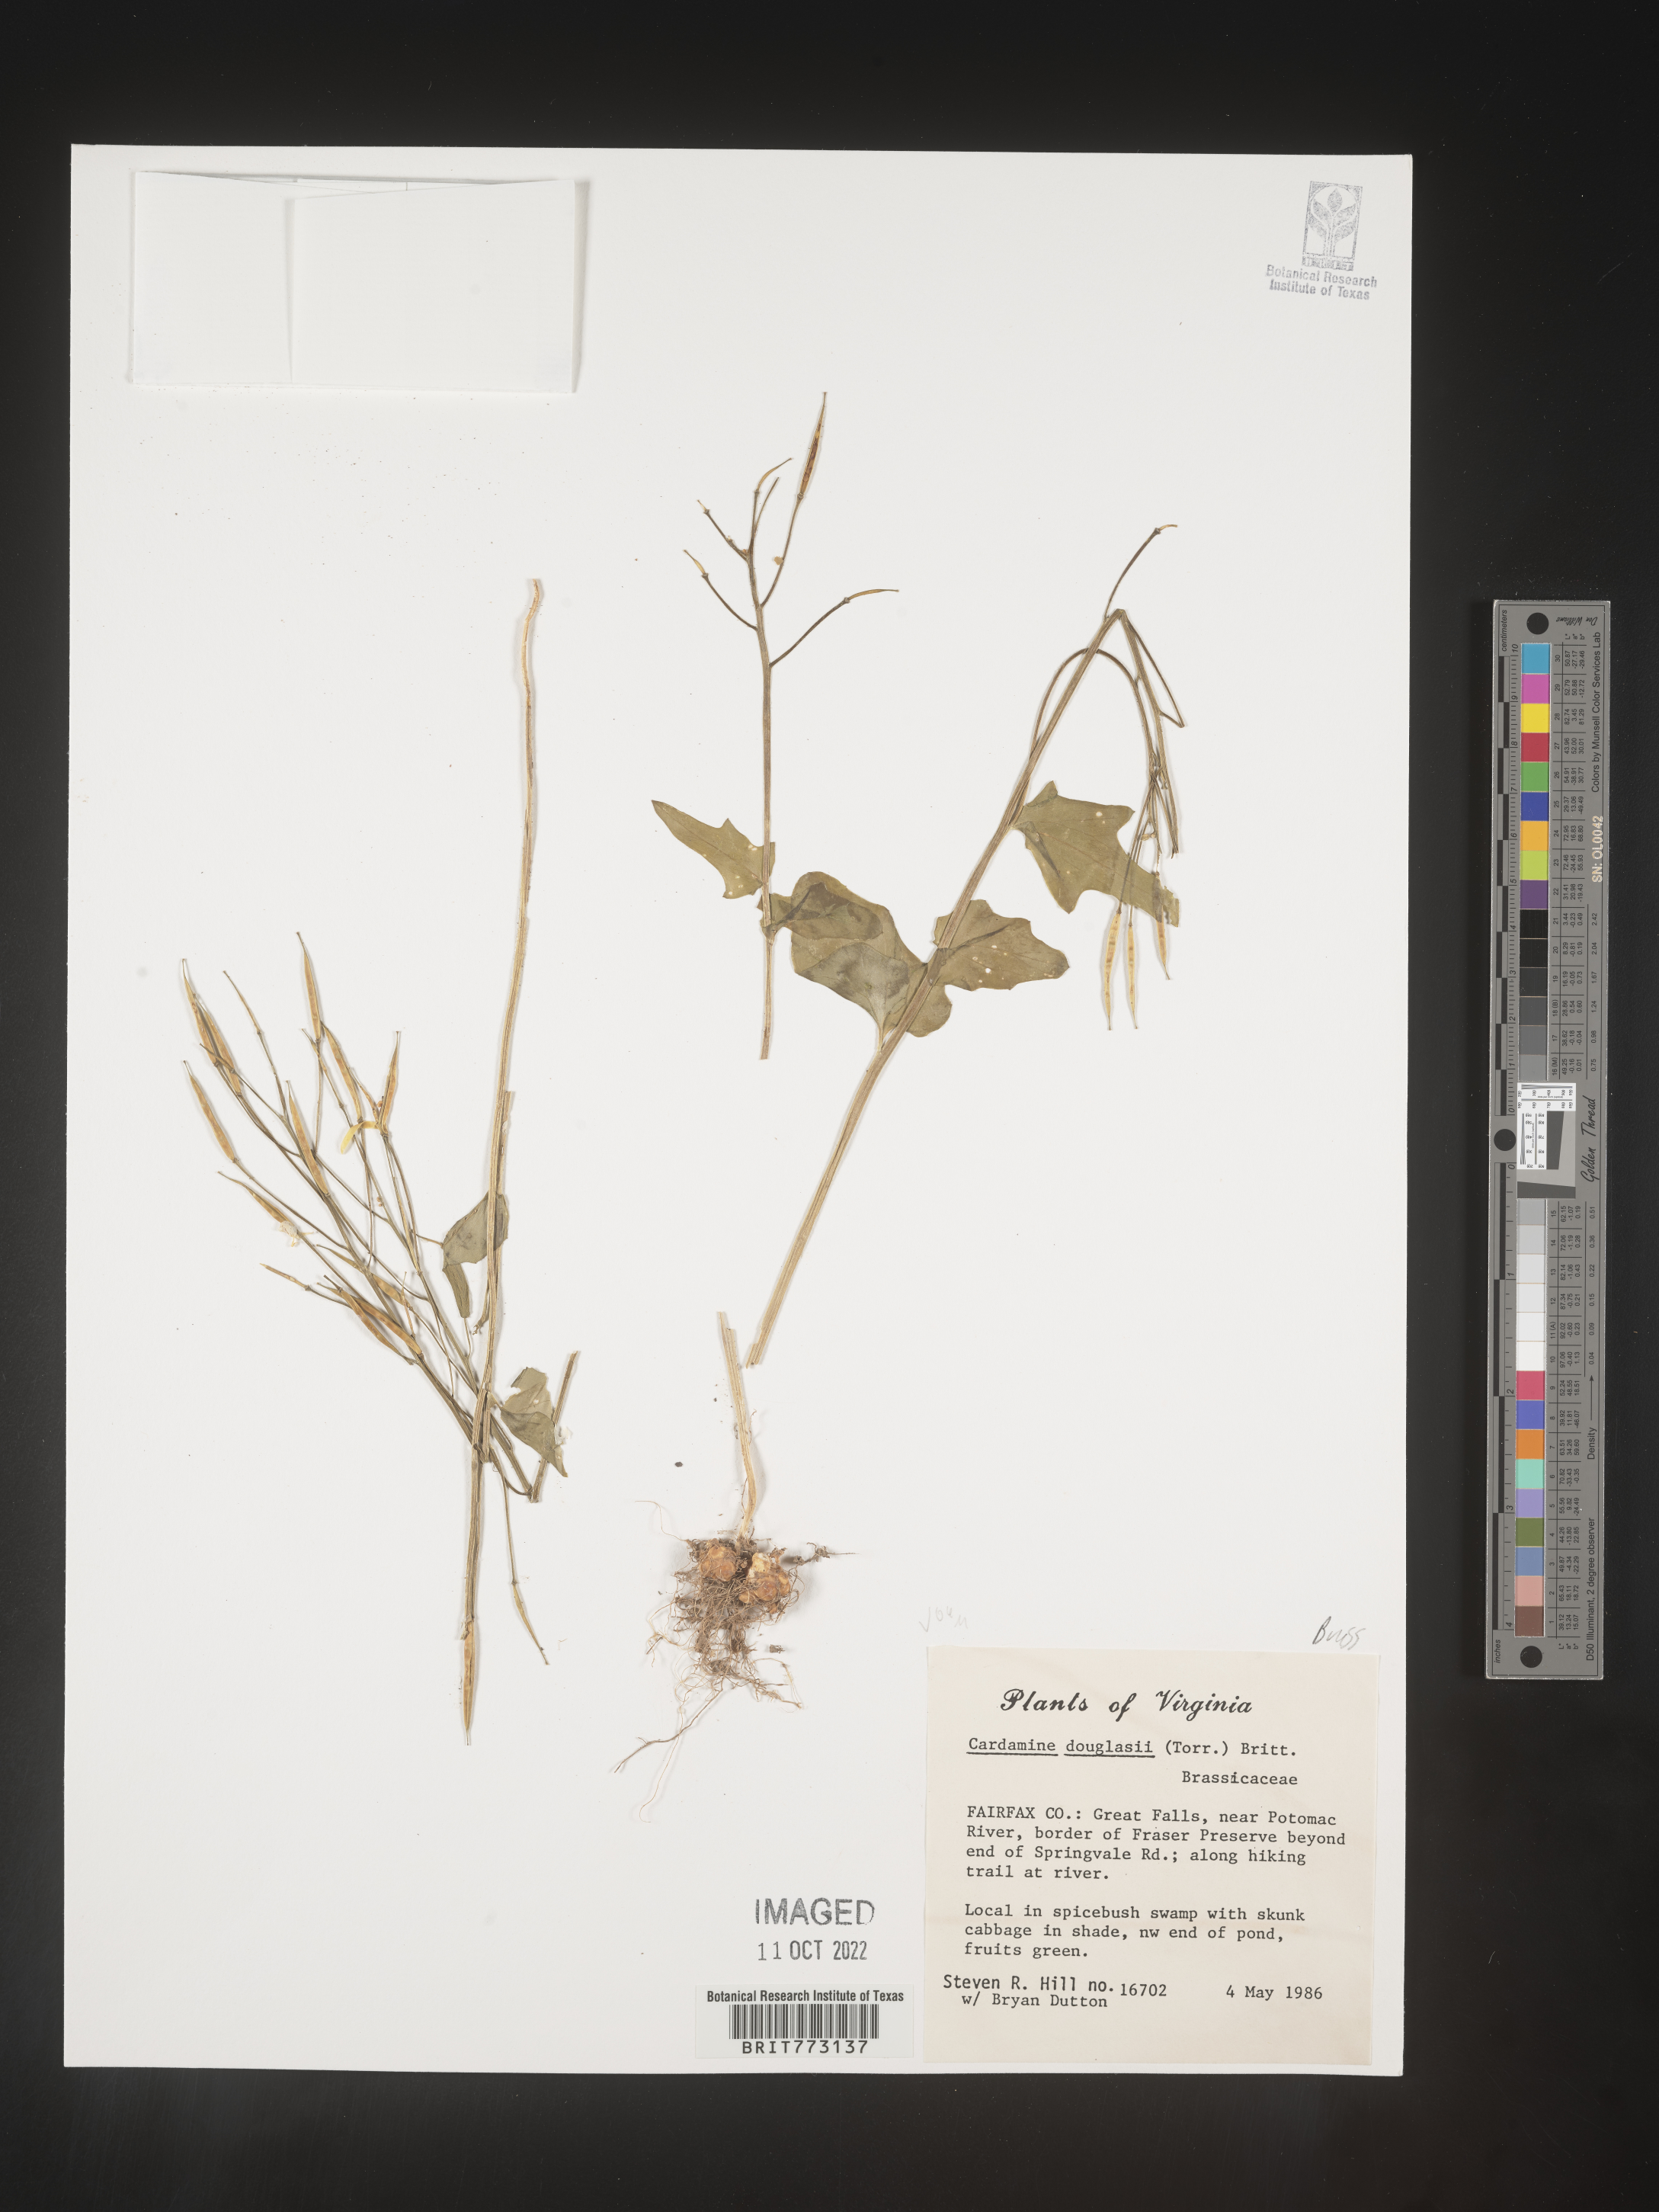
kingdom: Plantae
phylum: Tracheophyta
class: Magnoliopsida
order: Brassicales
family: Brassicaceae
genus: Cardamine
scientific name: Cardamine
